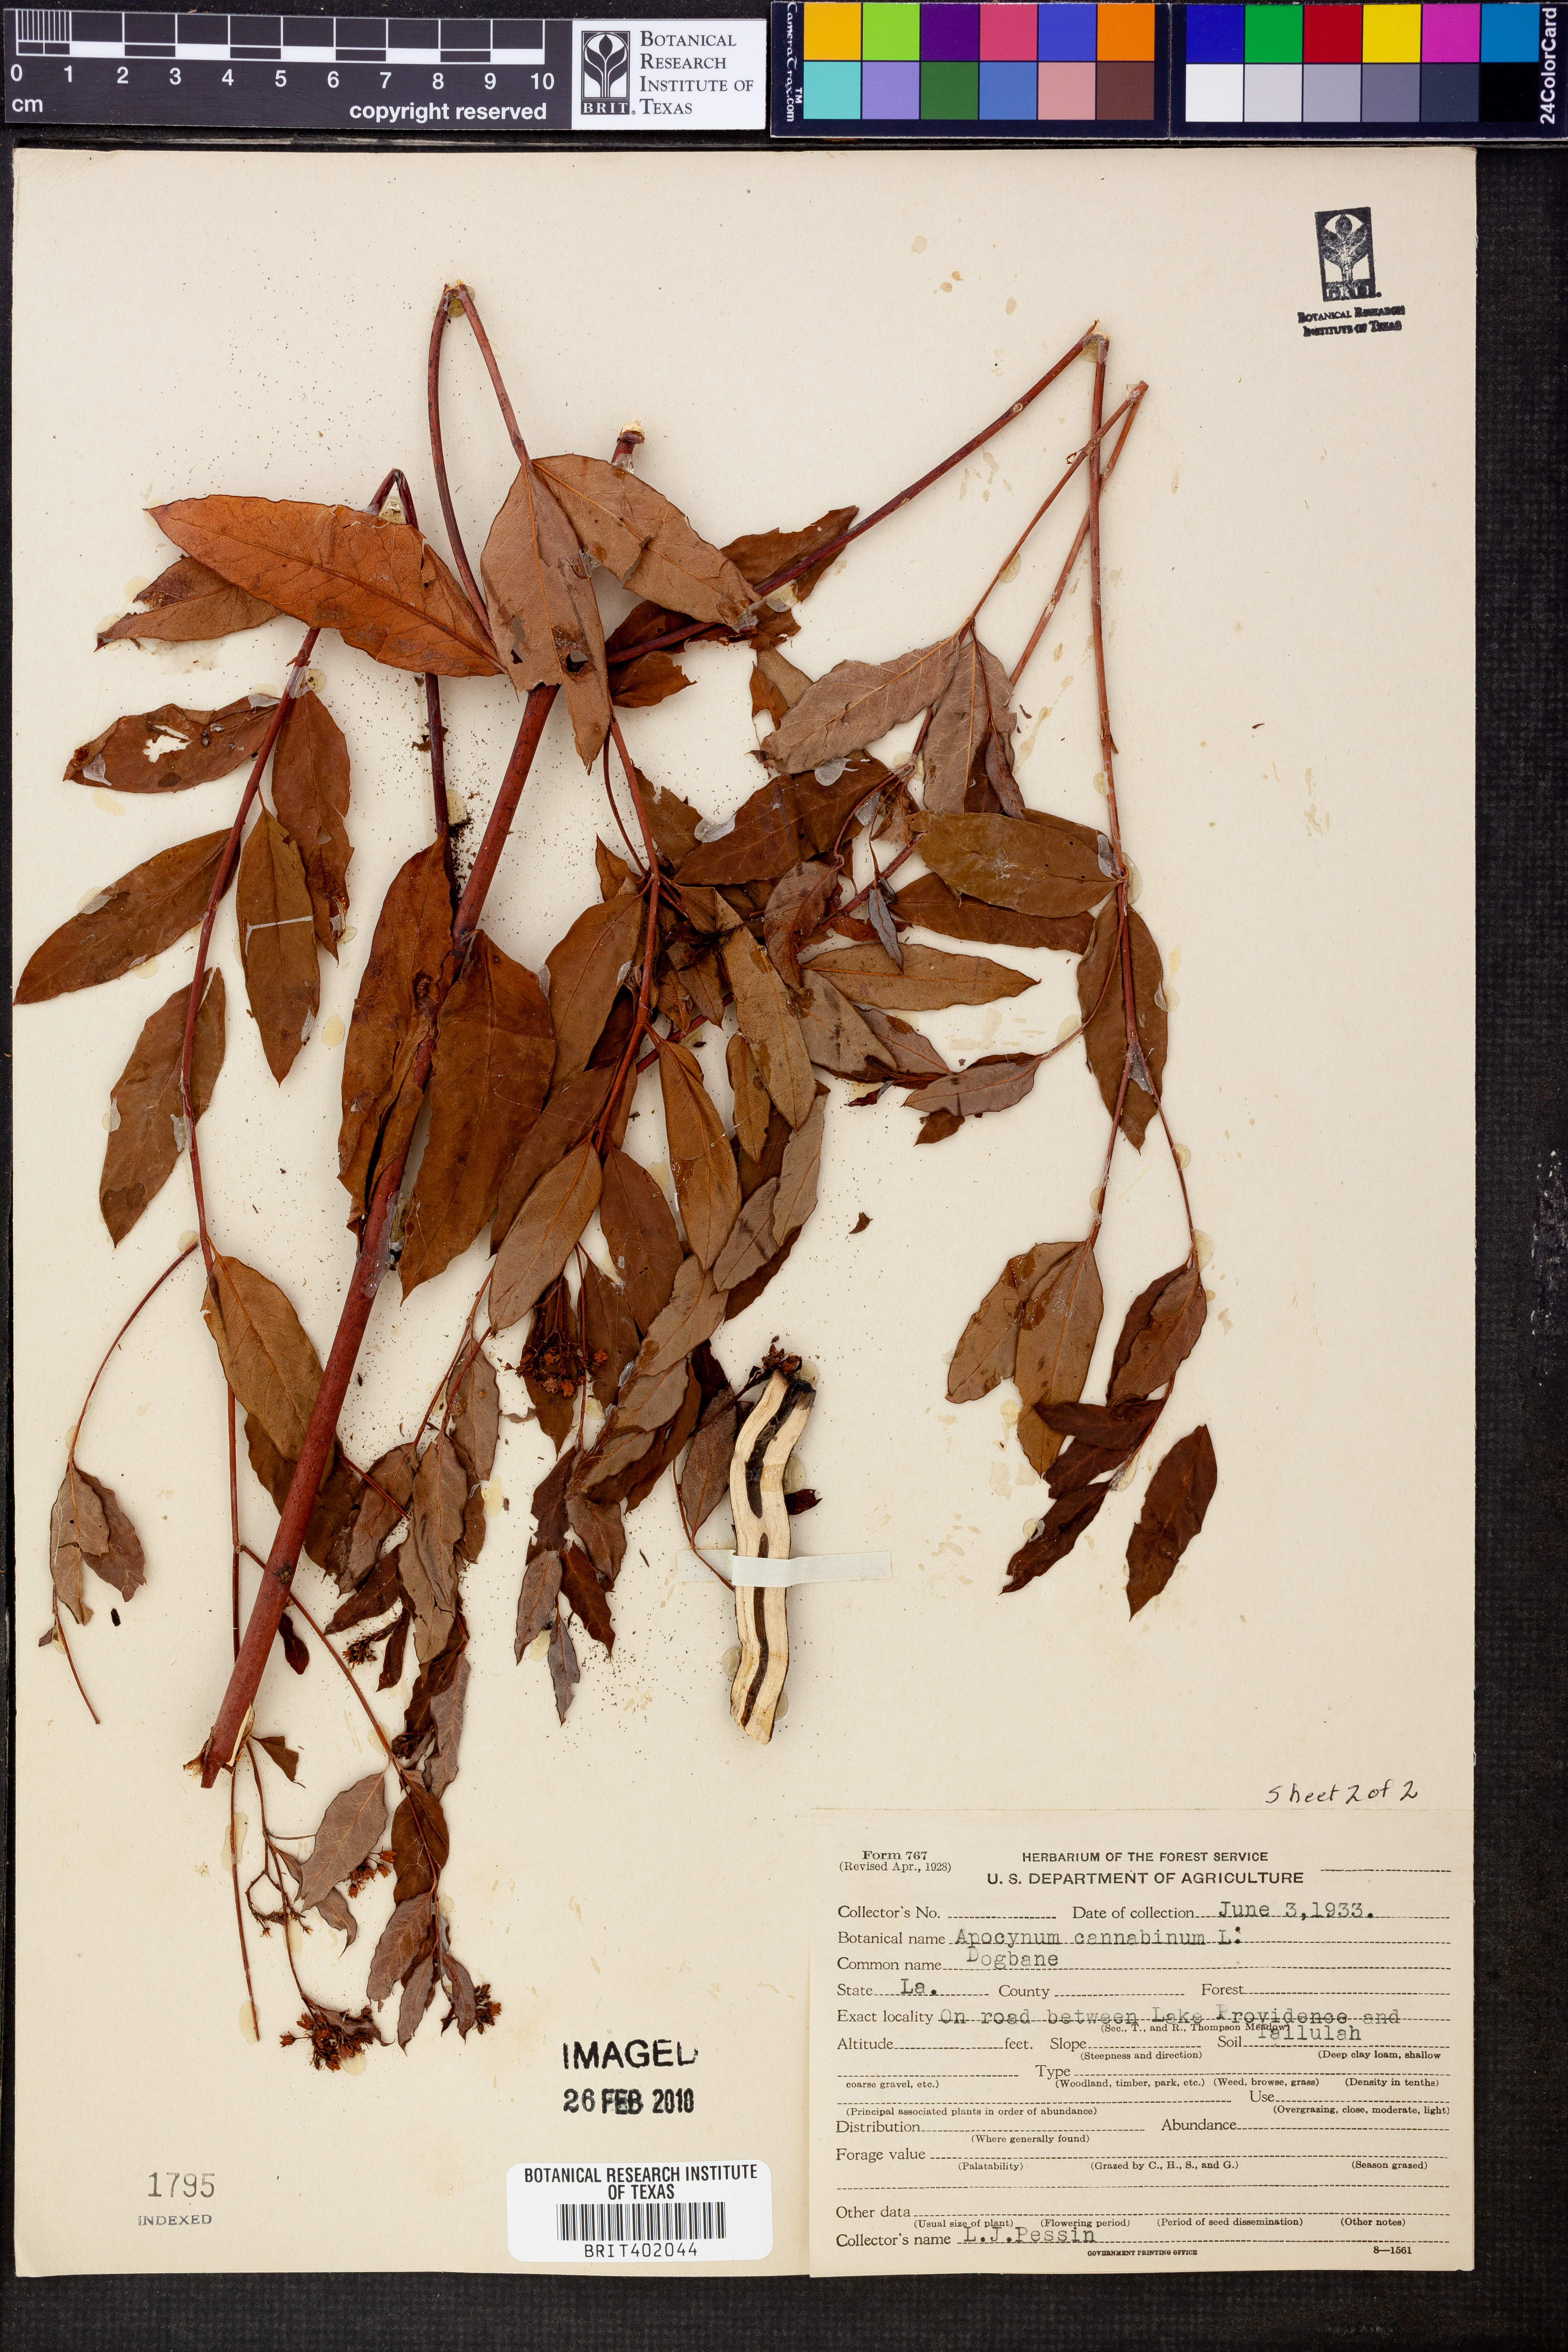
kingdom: Plantae
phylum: Tracheophyta
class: Magnoliopsida
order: Gentianales
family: Apocynaceae
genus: Apocynum
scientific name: Apocynum cannabinum
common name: Hemp dogbane
